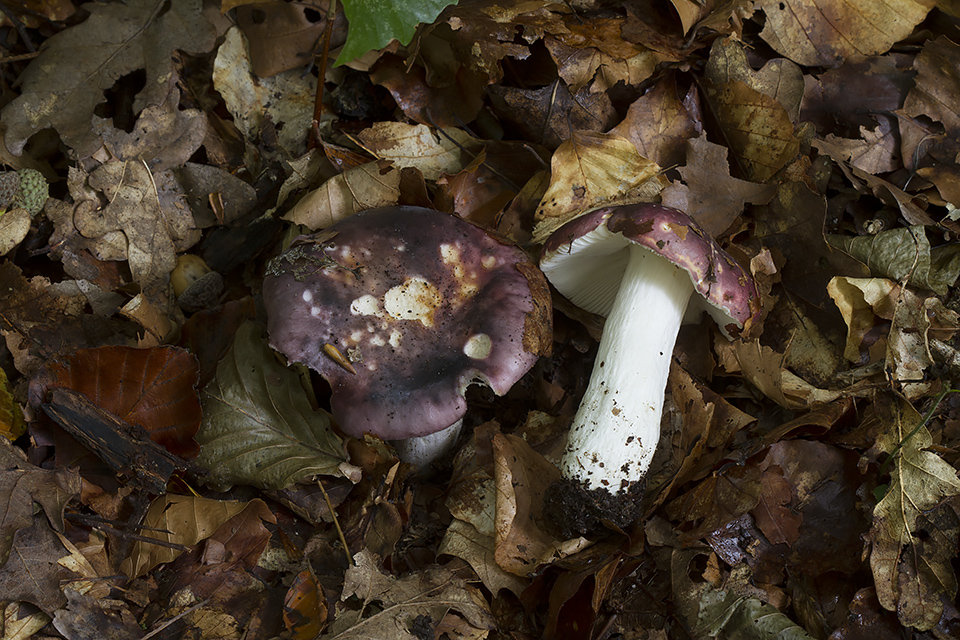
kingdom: Fungi
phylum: Basidiomycota
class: Agaricomycetes
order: Russulales
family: Russulaceae
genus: Russula
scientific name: Russula atropurpurea
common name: purpurbroget skørhat
